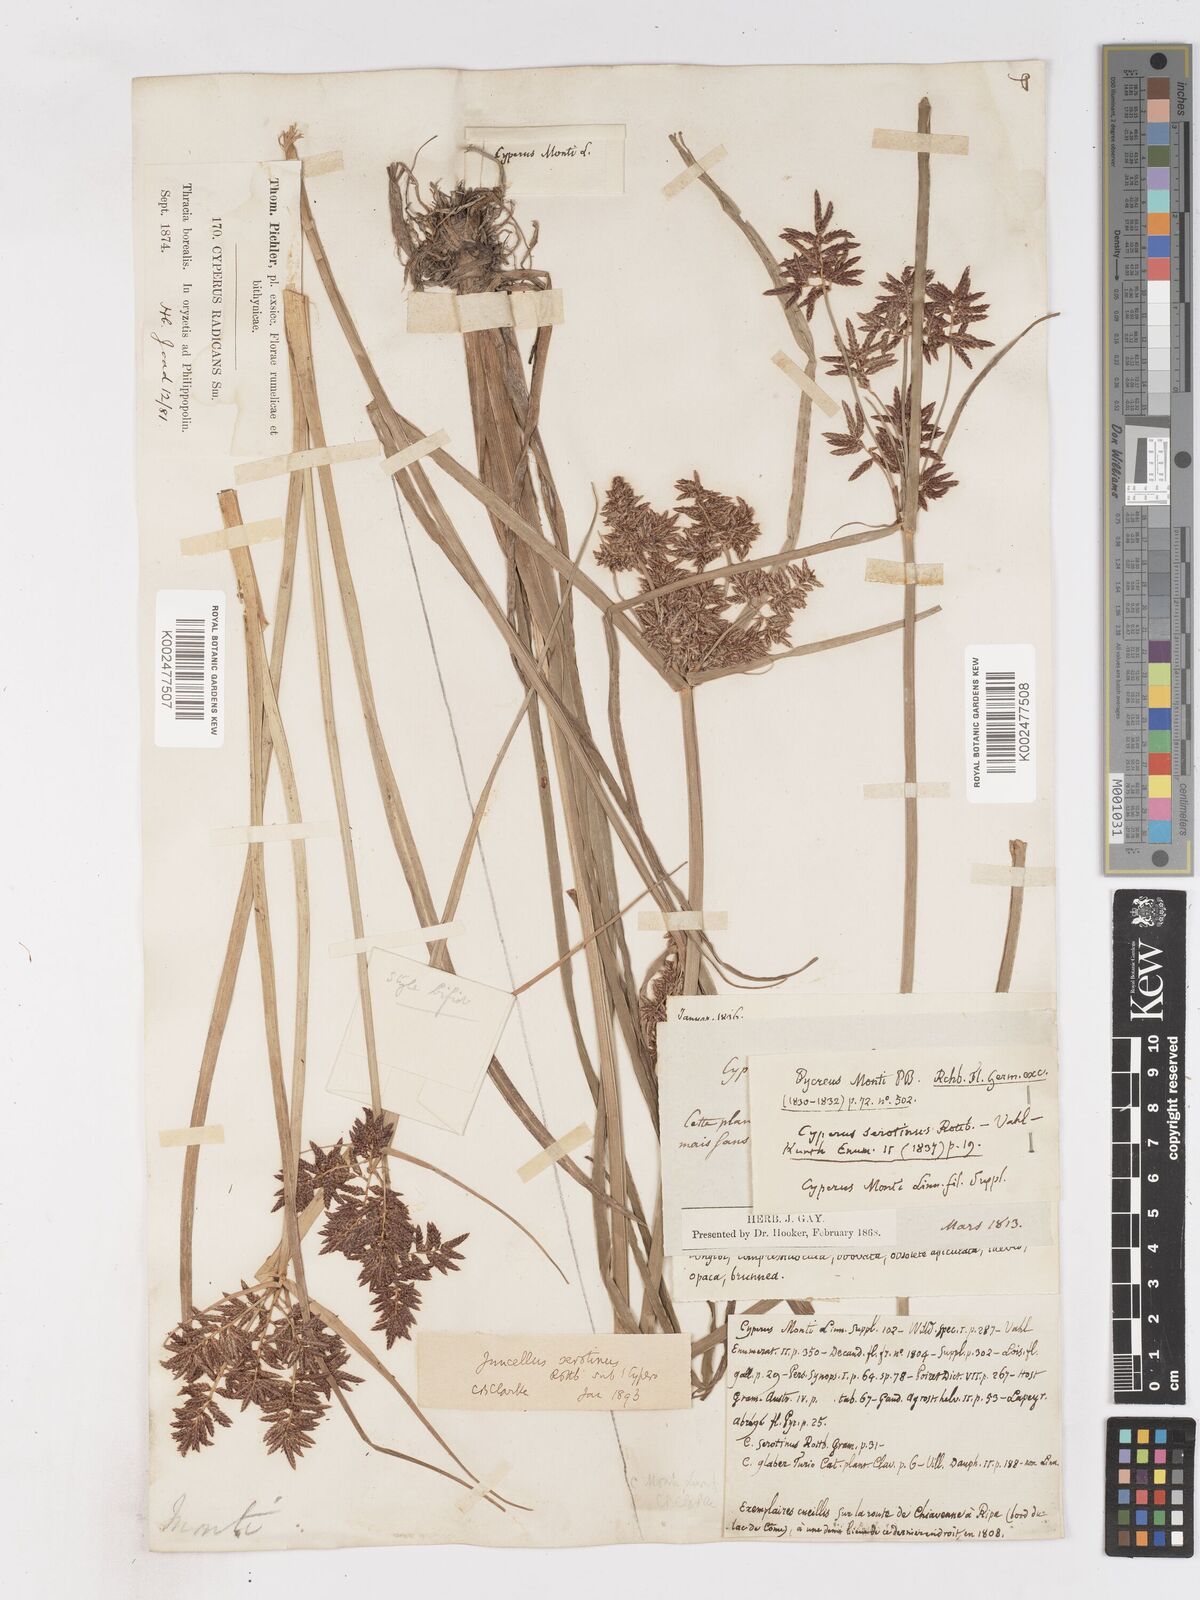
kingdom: Plantae
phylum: Tracheophyta
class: Liliopsida
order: Poales
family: Cyperaceae
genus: Cyperus
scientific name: Cyperus serotinus
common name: Tidalmarsh flatsedge
